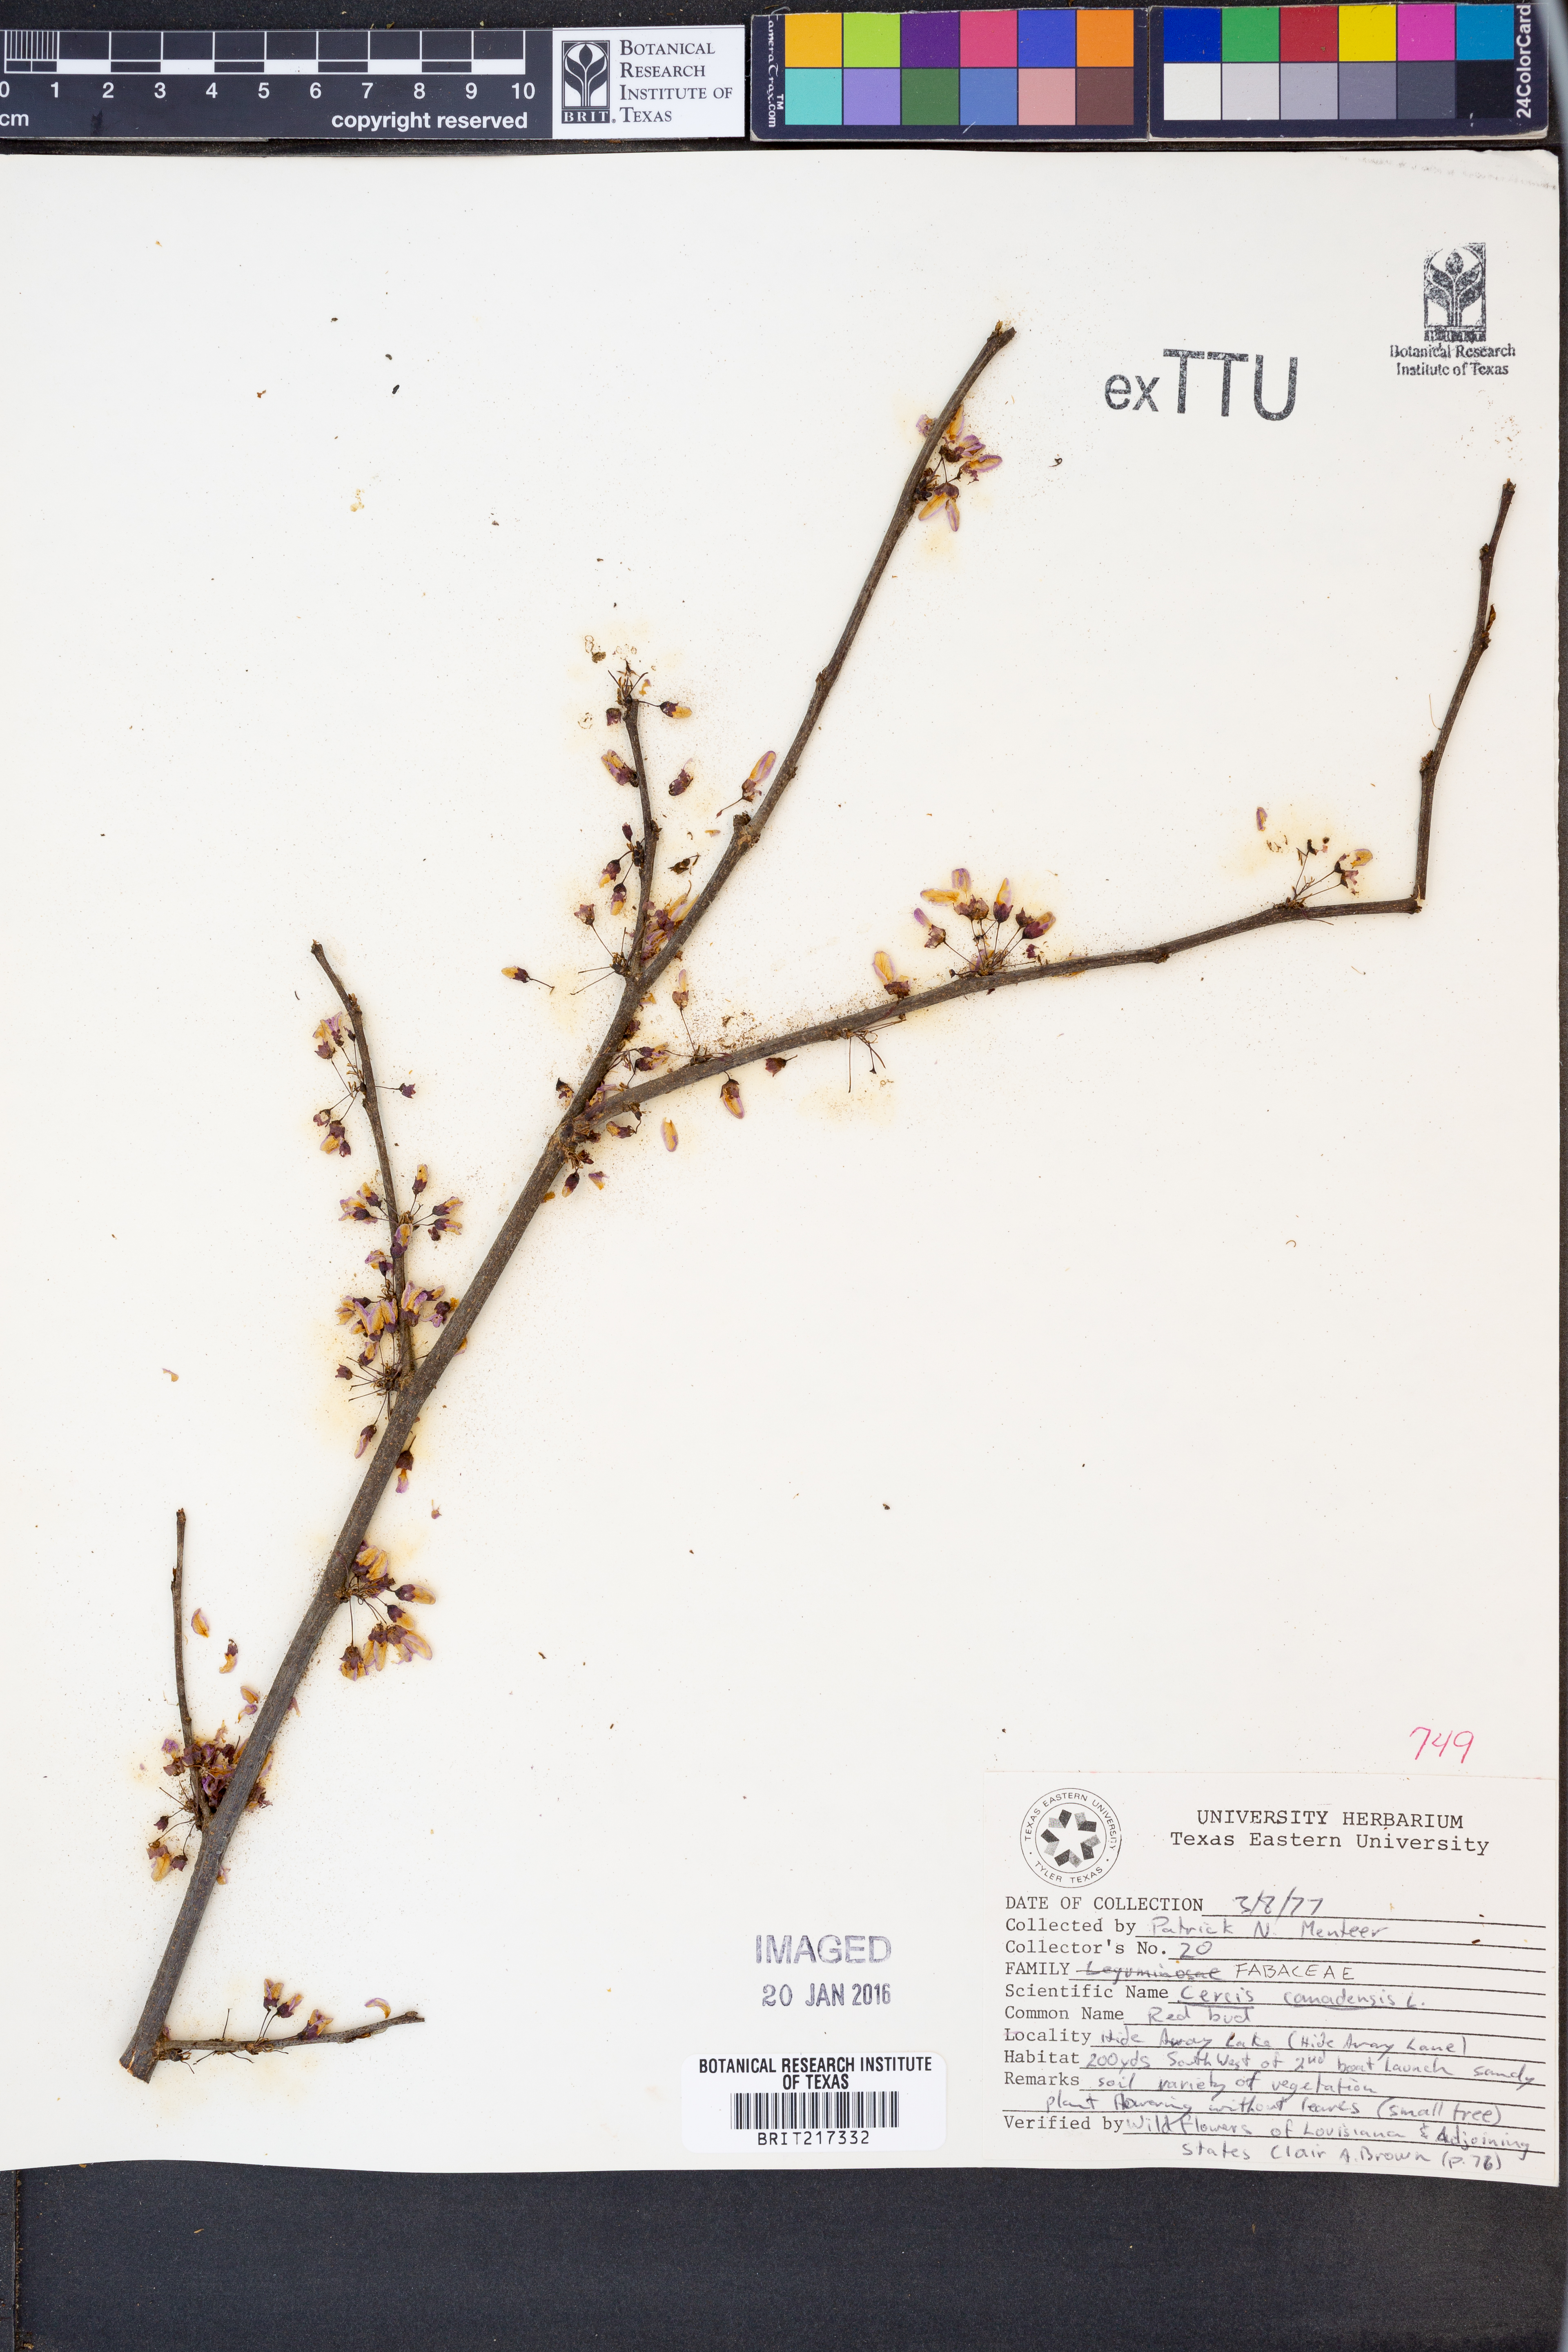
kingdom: Plantae
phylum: Tracheophyta
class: Magnoliopsida
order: Fabales
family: Fabaceae
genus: Cercis
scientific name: Cercis canadensis
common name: Eastern redbud
